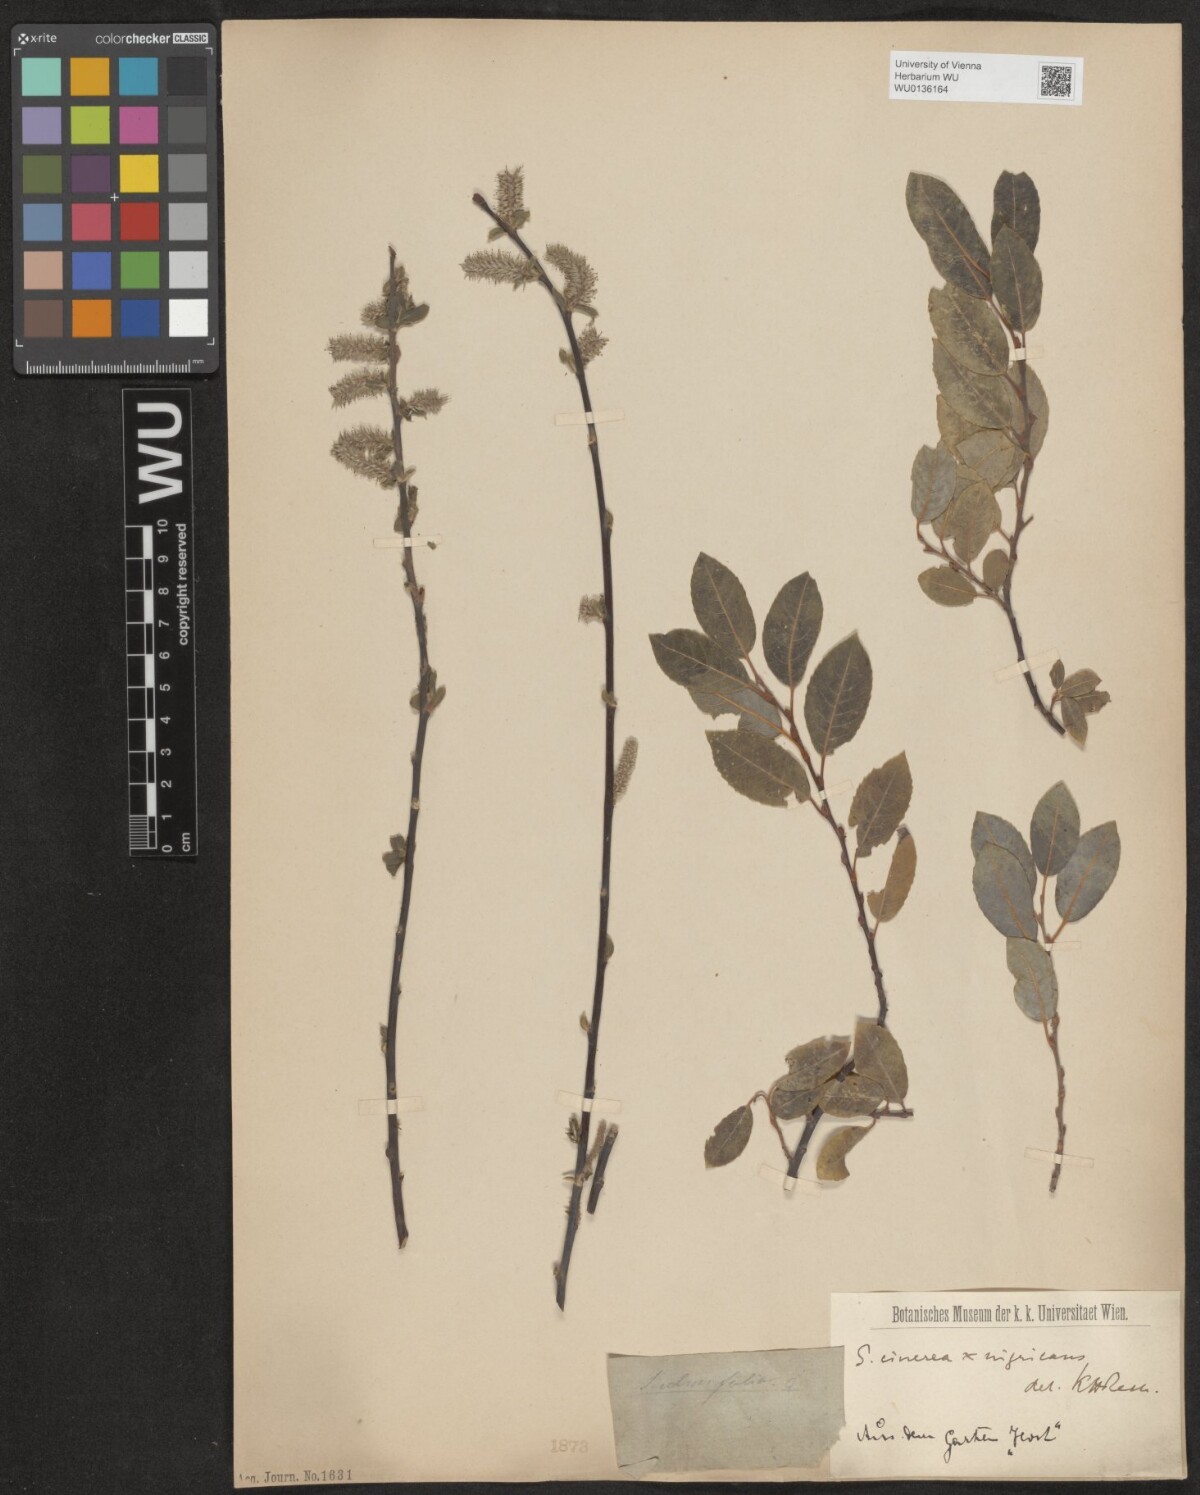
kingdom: Plantae
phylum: Tracheophyta
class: Magnoliopsida
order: Malpighiales
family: Salicaceae
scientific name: Salicaceae
